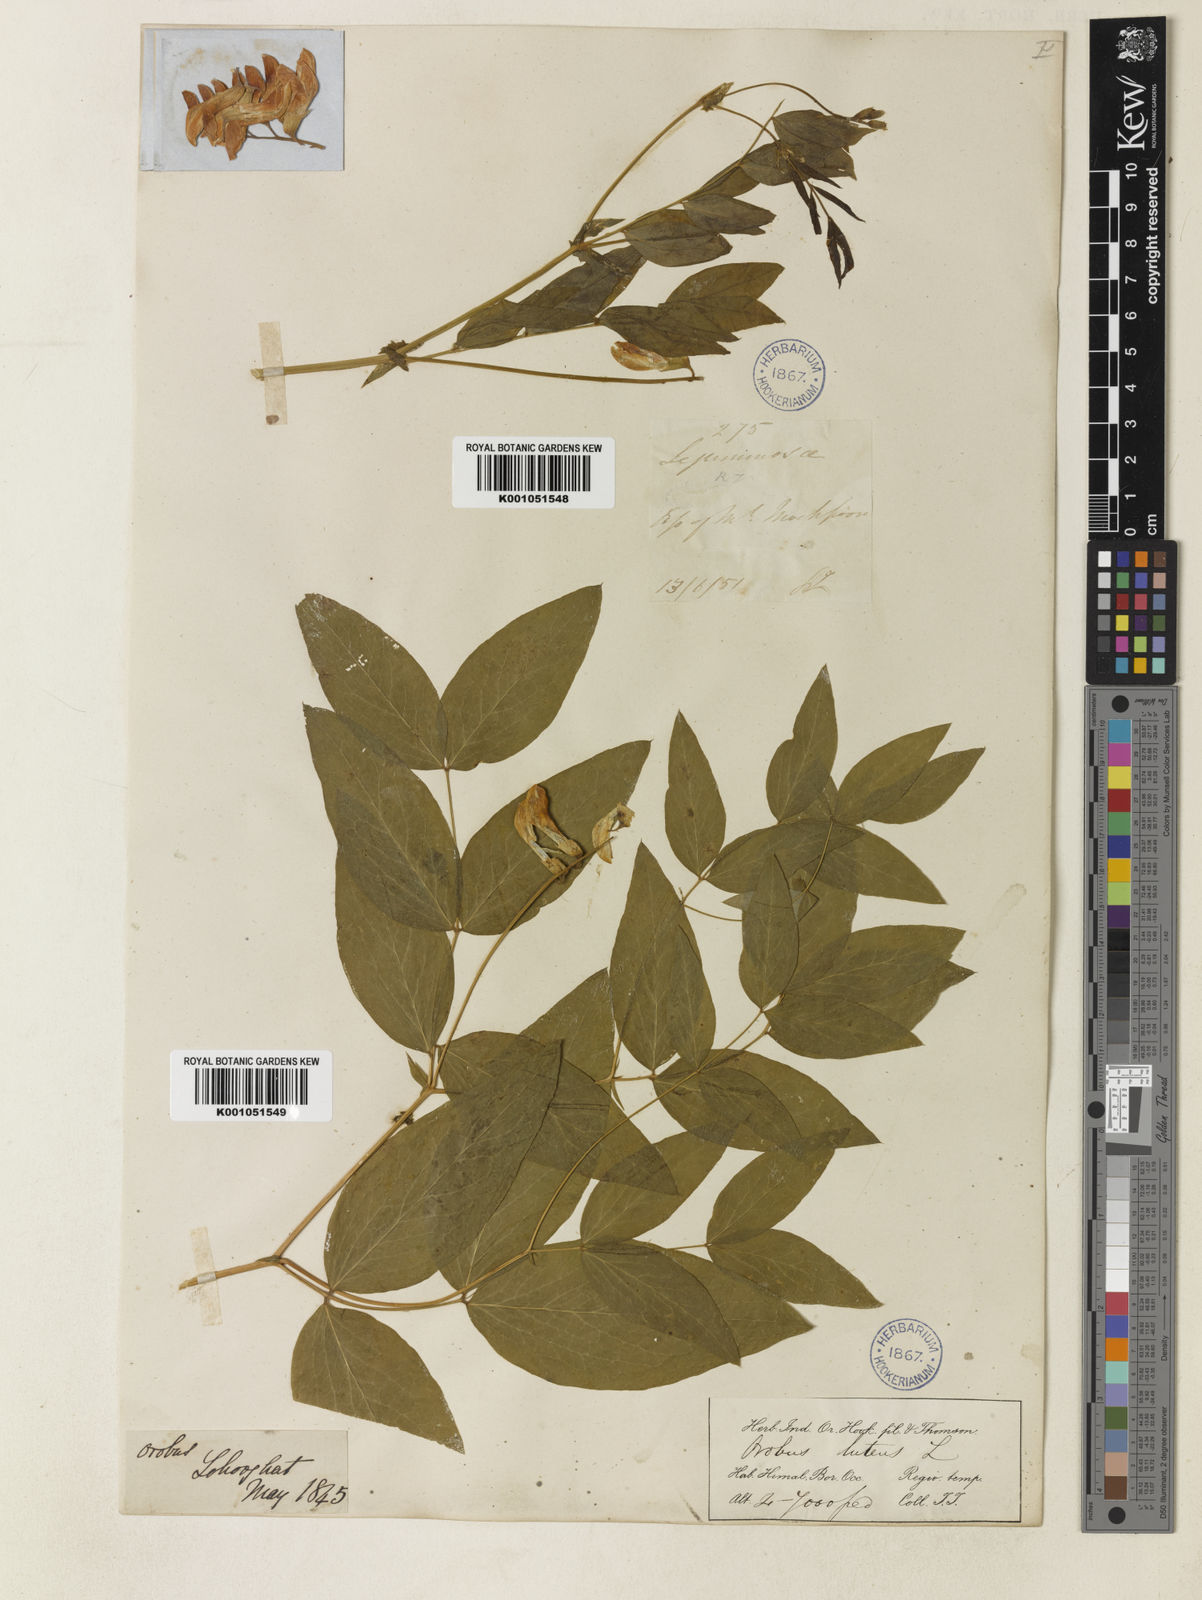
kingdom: Plantae
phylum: Tracheophyta
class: Magnoliopsida
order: Fabales
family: Fabaceae
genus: Lathyrus
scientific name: Lathyrus
